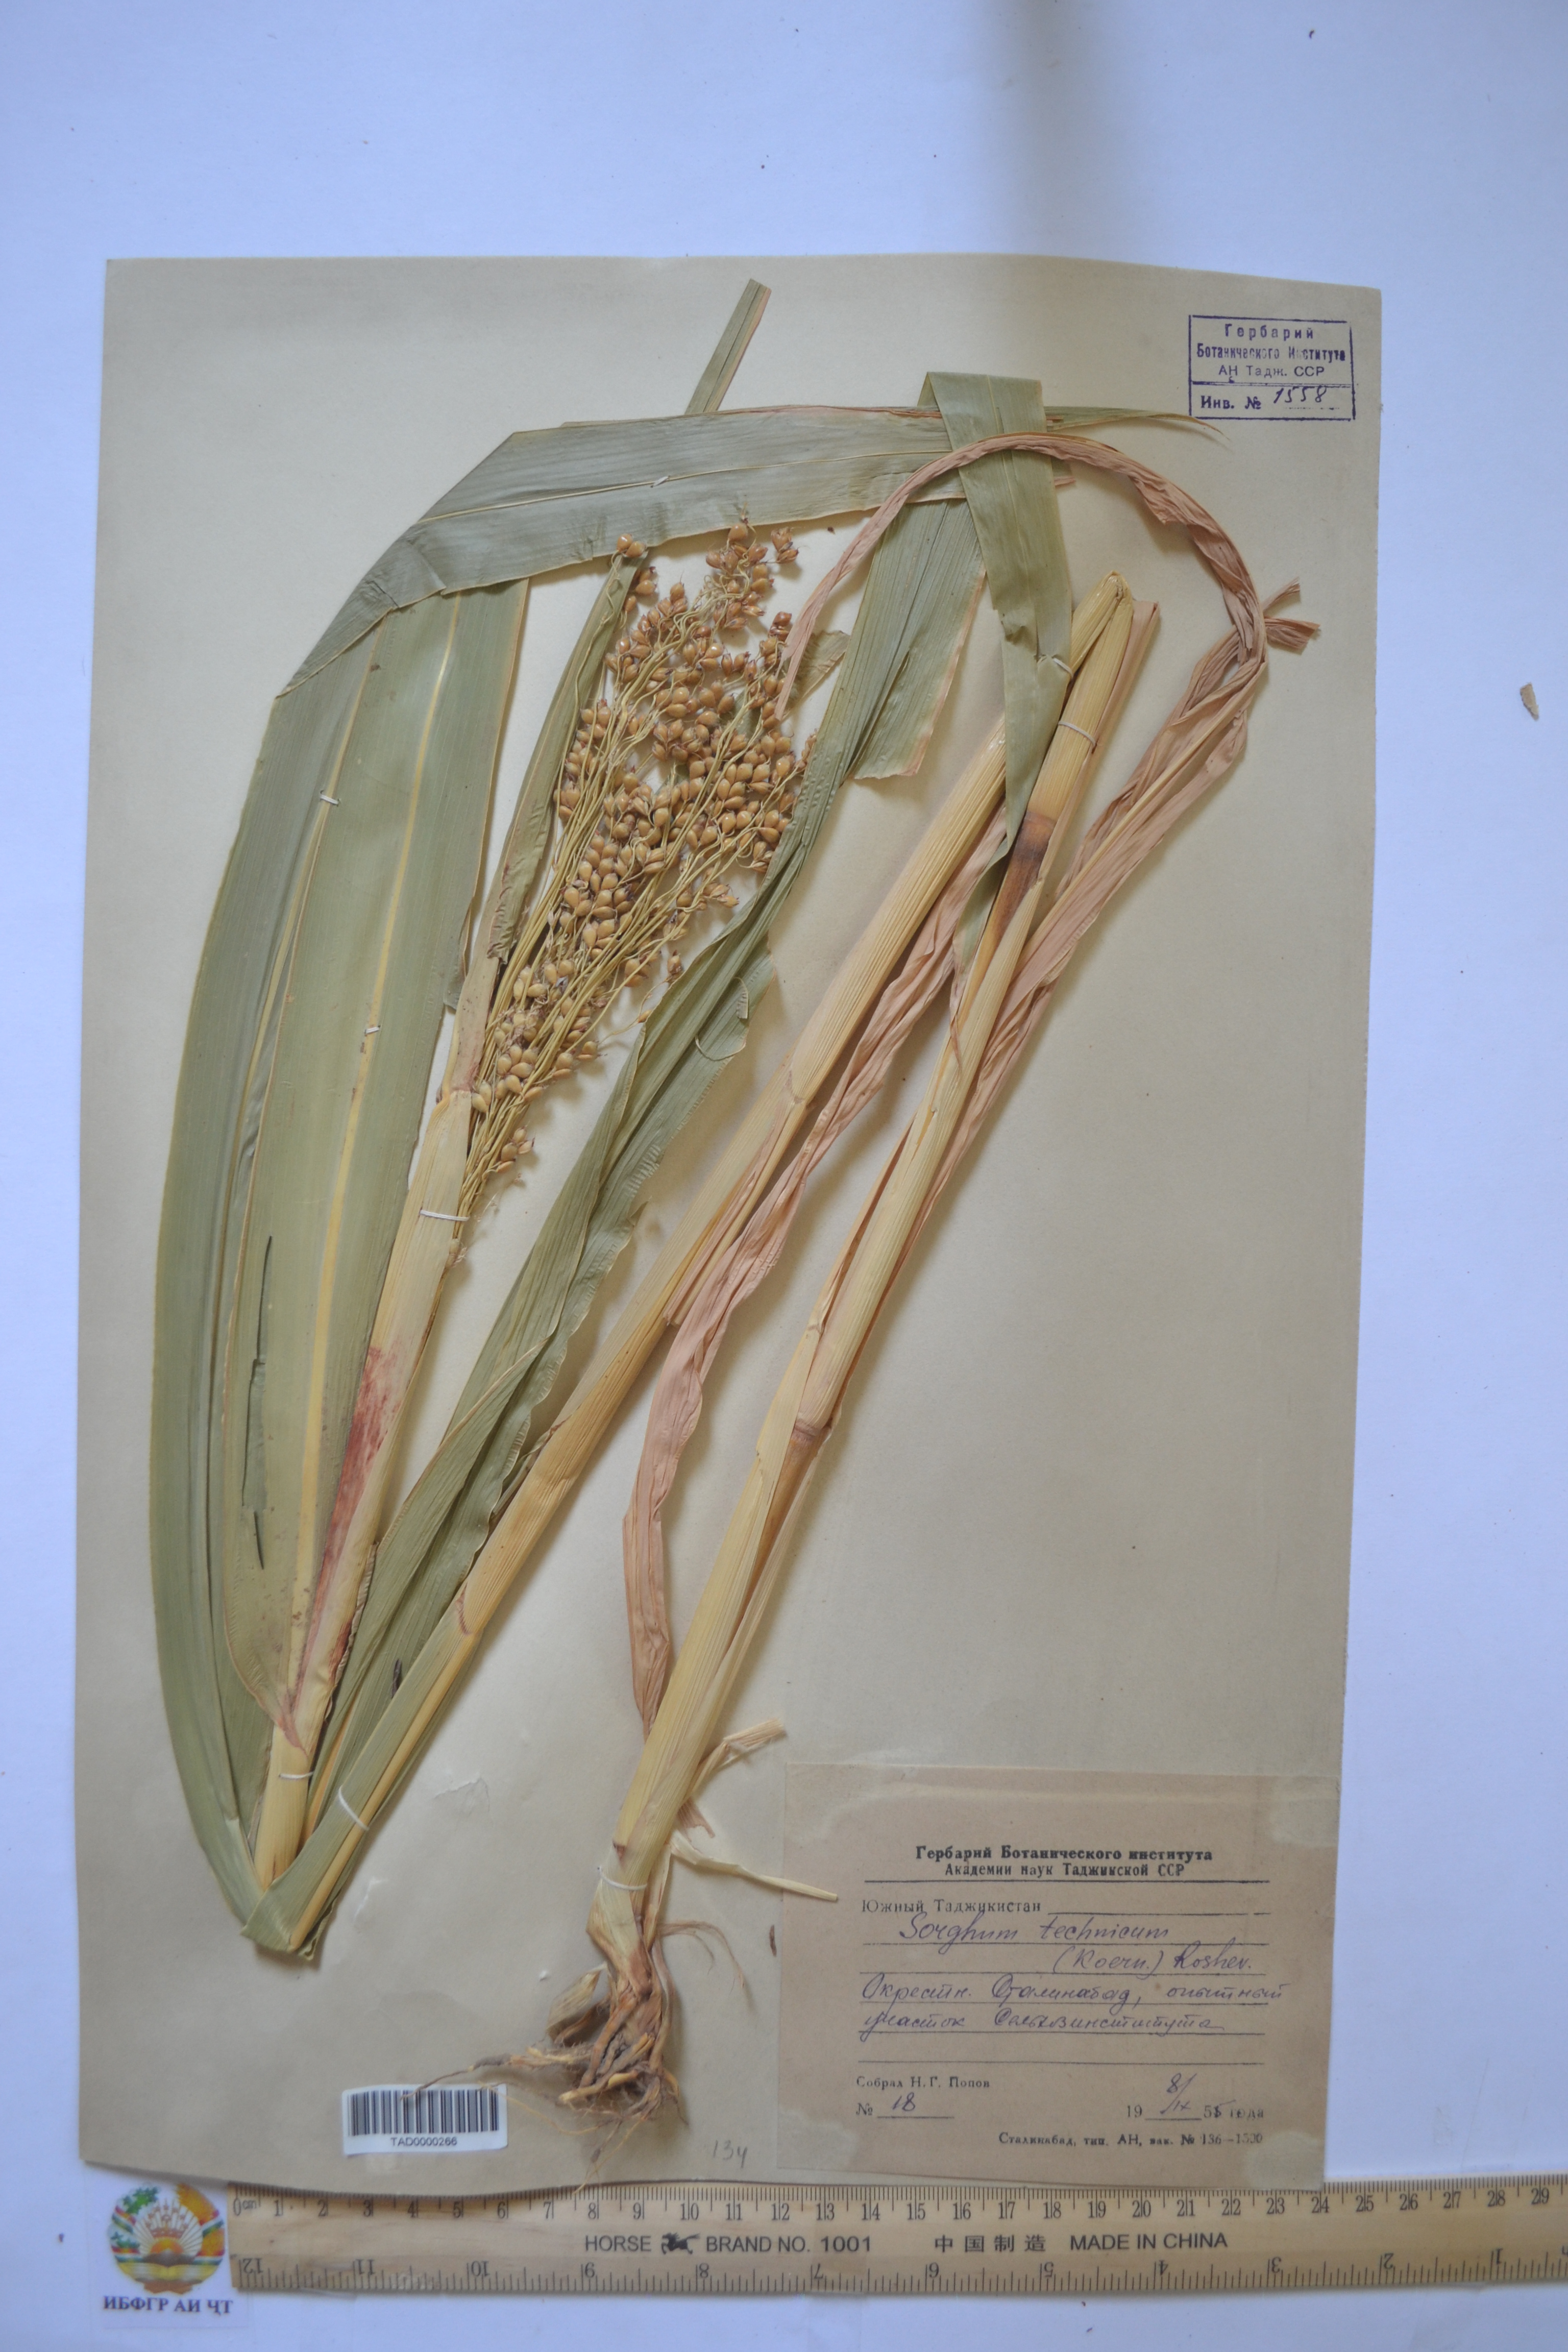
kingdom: Plantae
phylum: Tracheophyta
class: Liliopsida
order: Poales
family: Poaceae
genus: Sorghum
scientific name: Sorghum bicolor
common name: Sorghum
